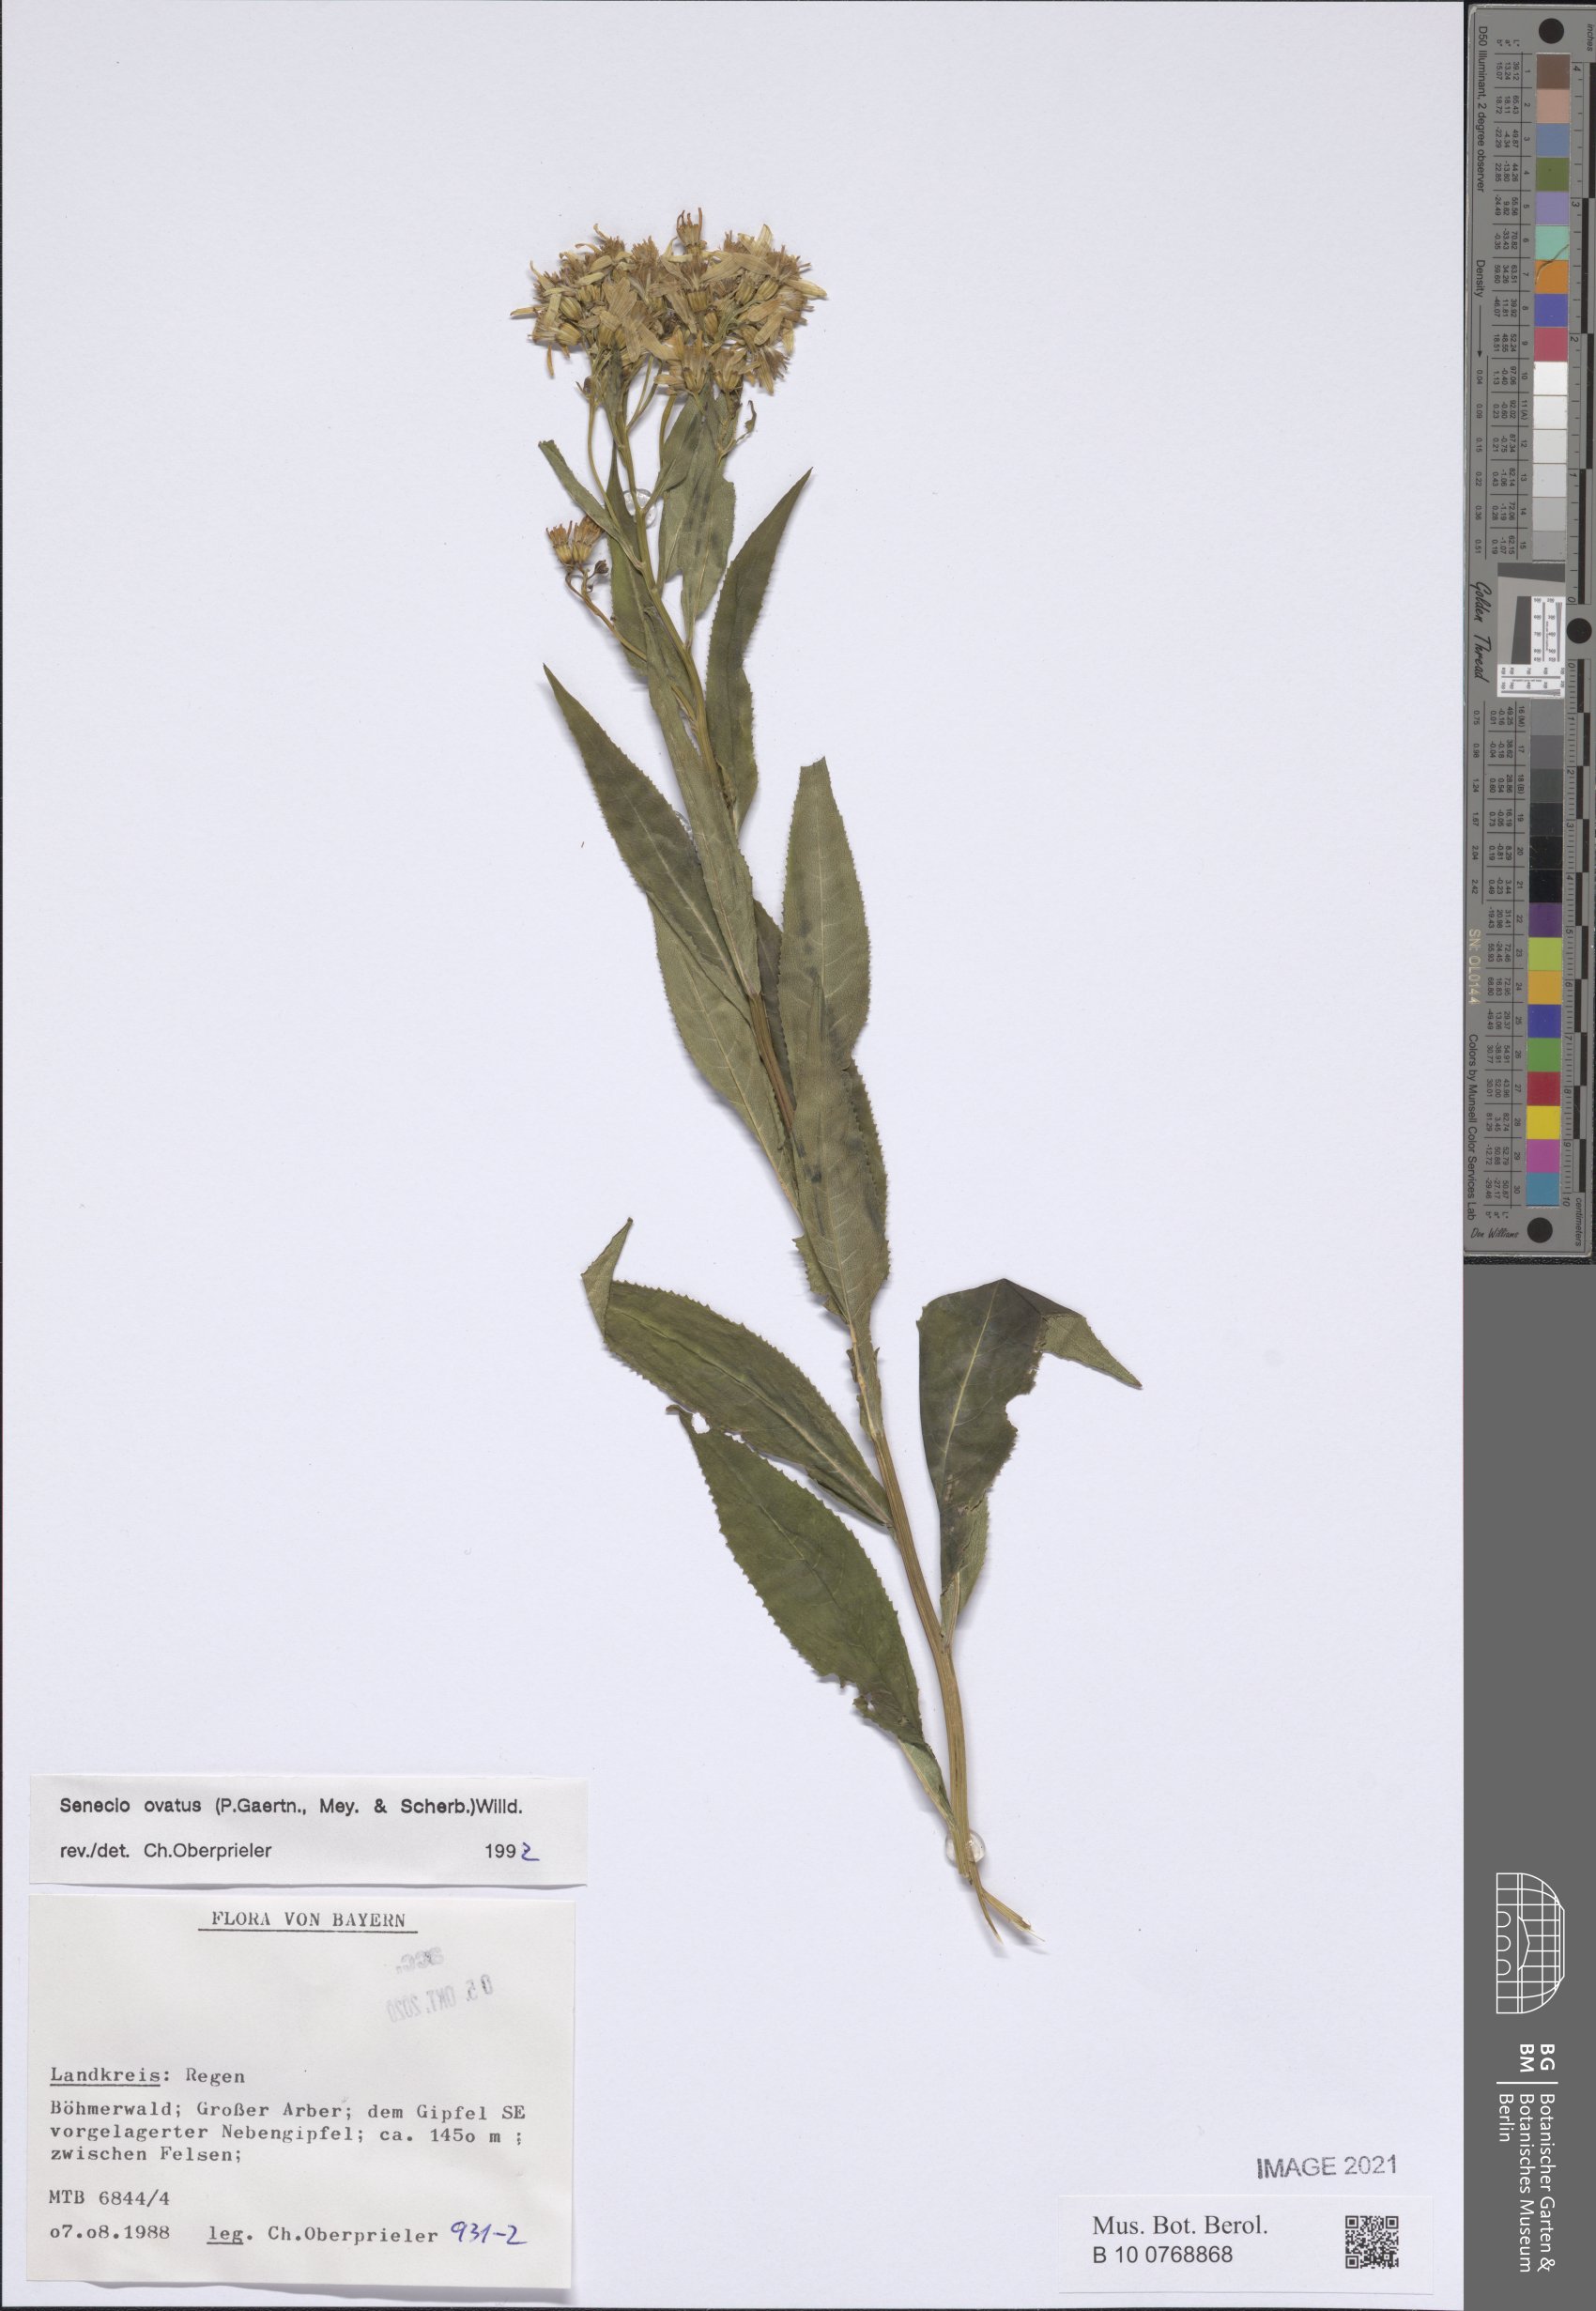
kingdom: Plantae
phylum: Tracheophyta
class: Magnoliopsida
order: Asterales
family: Asteraceae
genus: Senecio
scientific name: Senecio ovatus
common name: Wood ragwort
